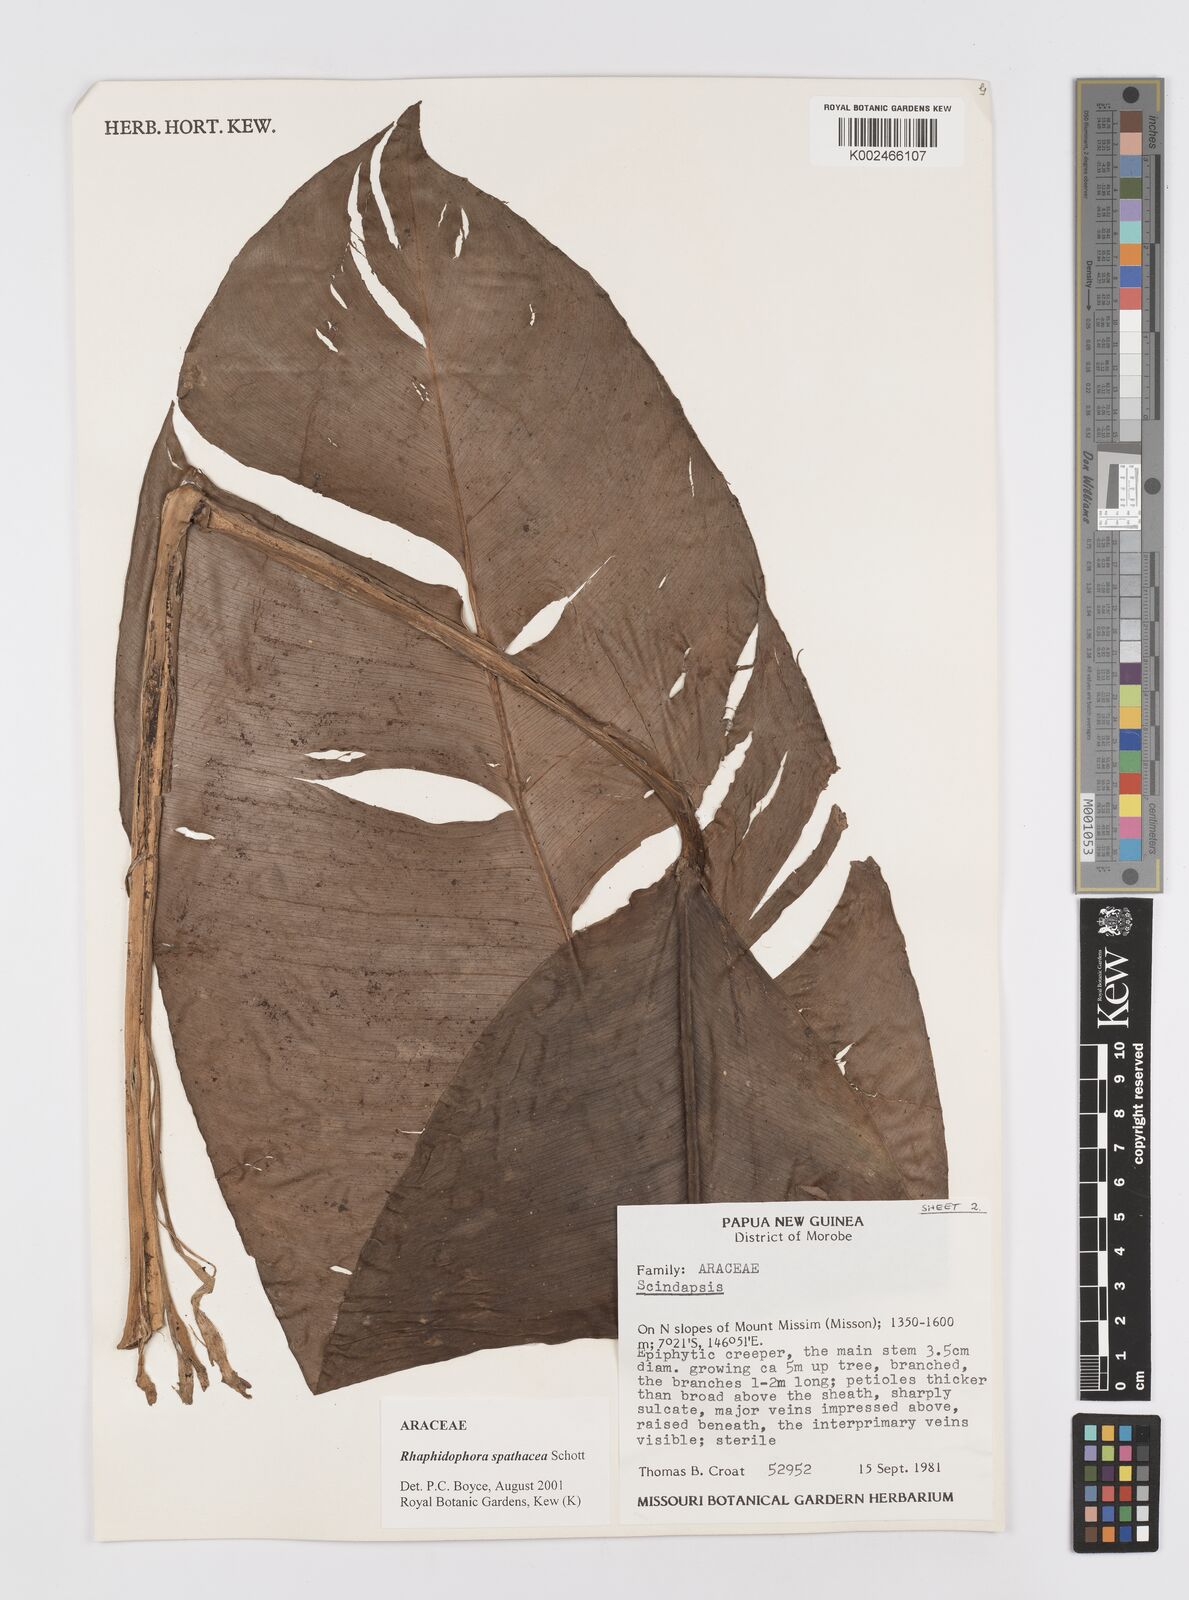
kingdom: Plantae
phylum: Tracheophyta
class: Liliopsida
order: Alismatales
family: Araceae
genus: Rhaphidophora
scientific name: Rhaphidophora spathacea
